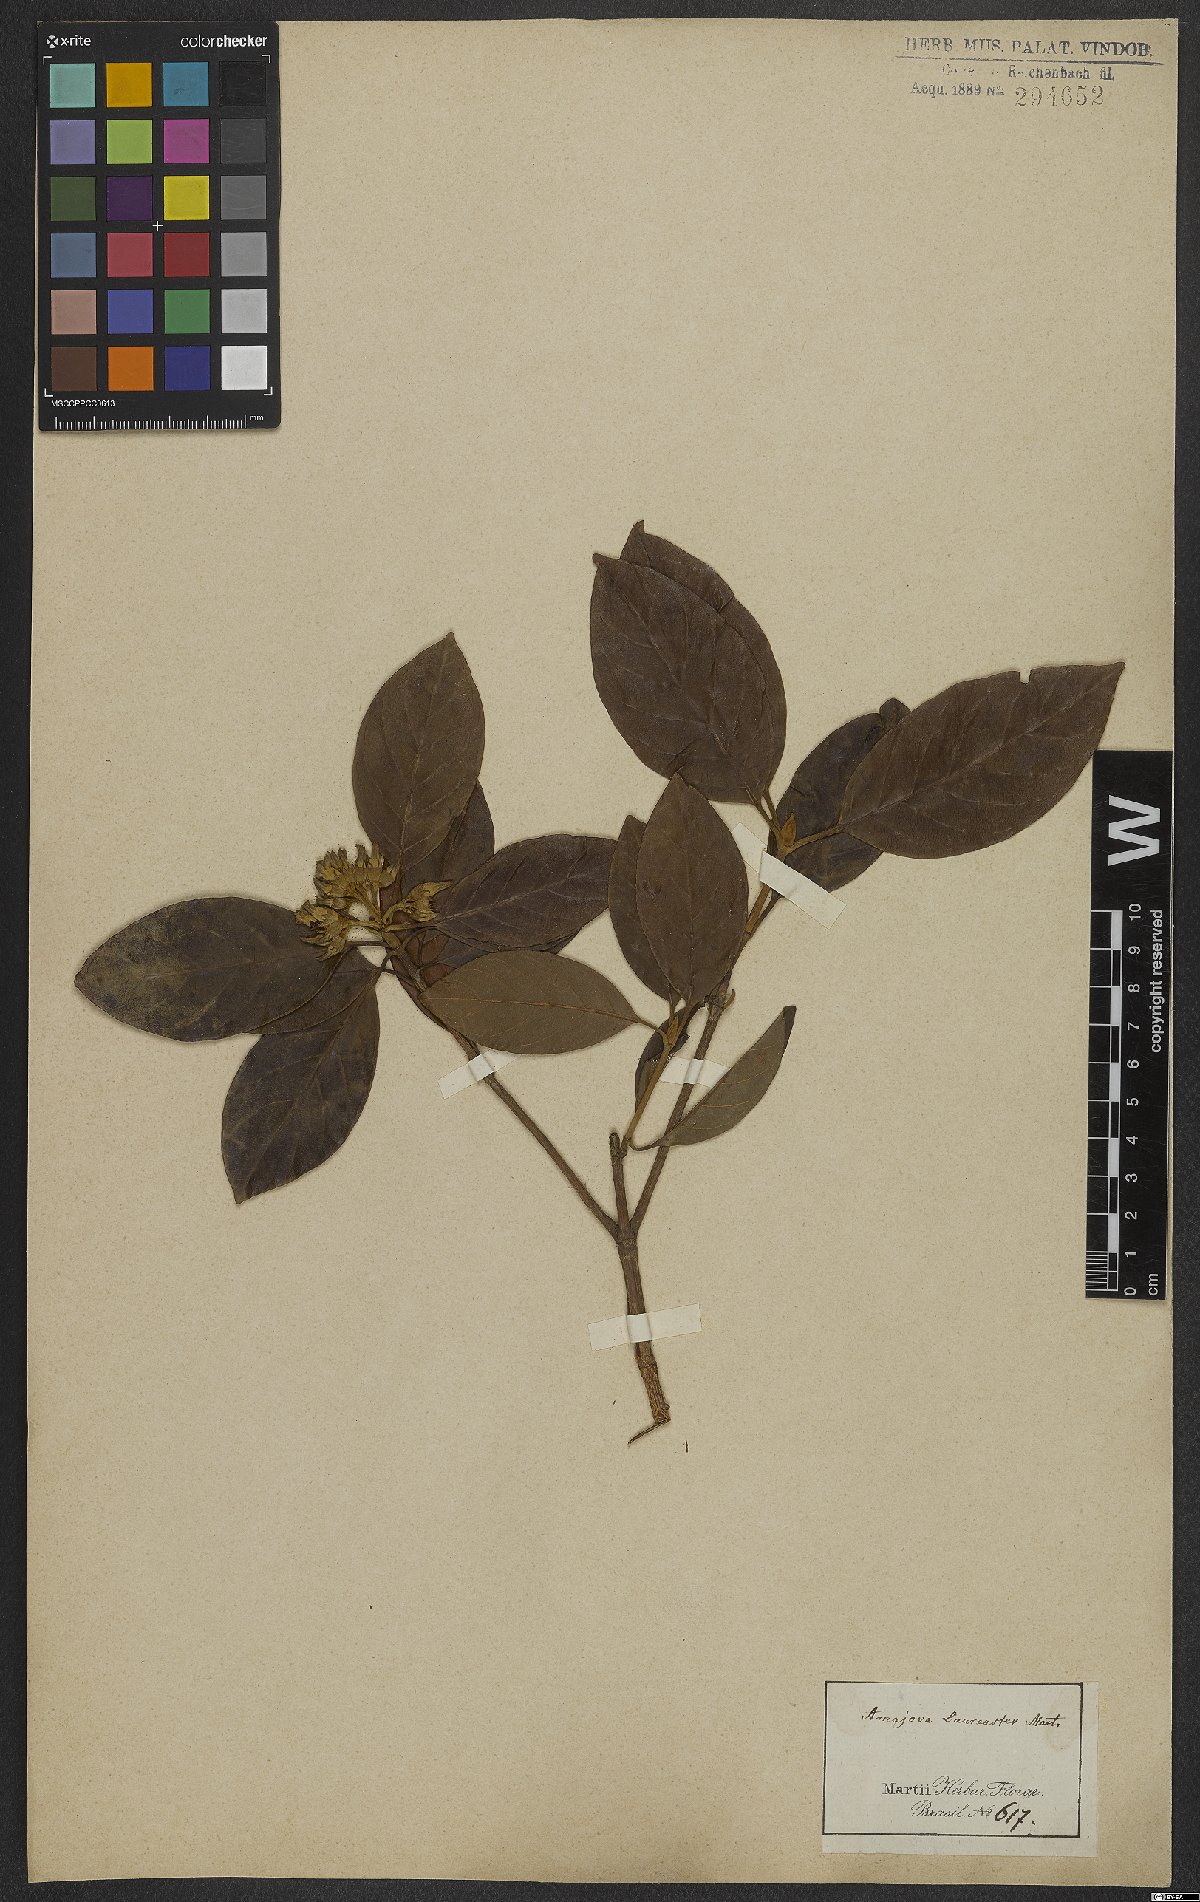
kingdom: Plantae
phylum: Tracheophyta
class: Magnoliopsida
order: Gentianales
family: Rubiaceae
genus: Amaioua
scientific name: Amaioua intermedia
